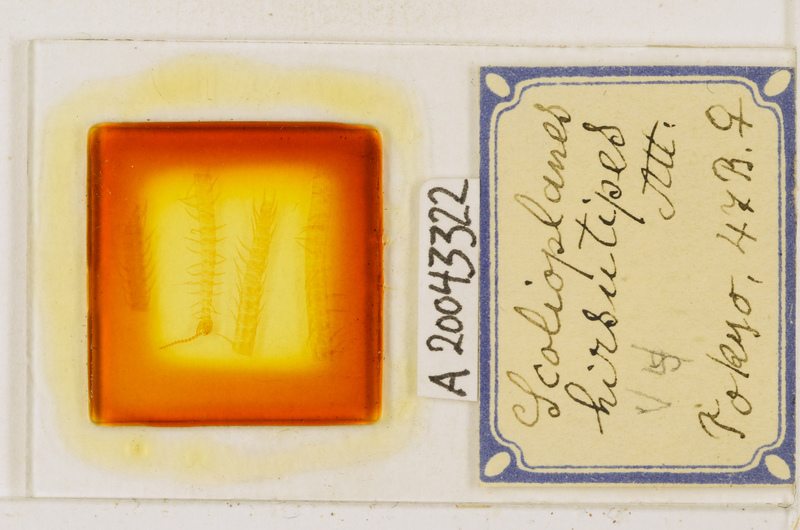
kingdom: Animalia
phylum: Arthropoda
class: Chilopoda
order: Geophilomorpha
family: Linotaeniidae
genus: Scolioplanes
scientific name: Scolioplanes
